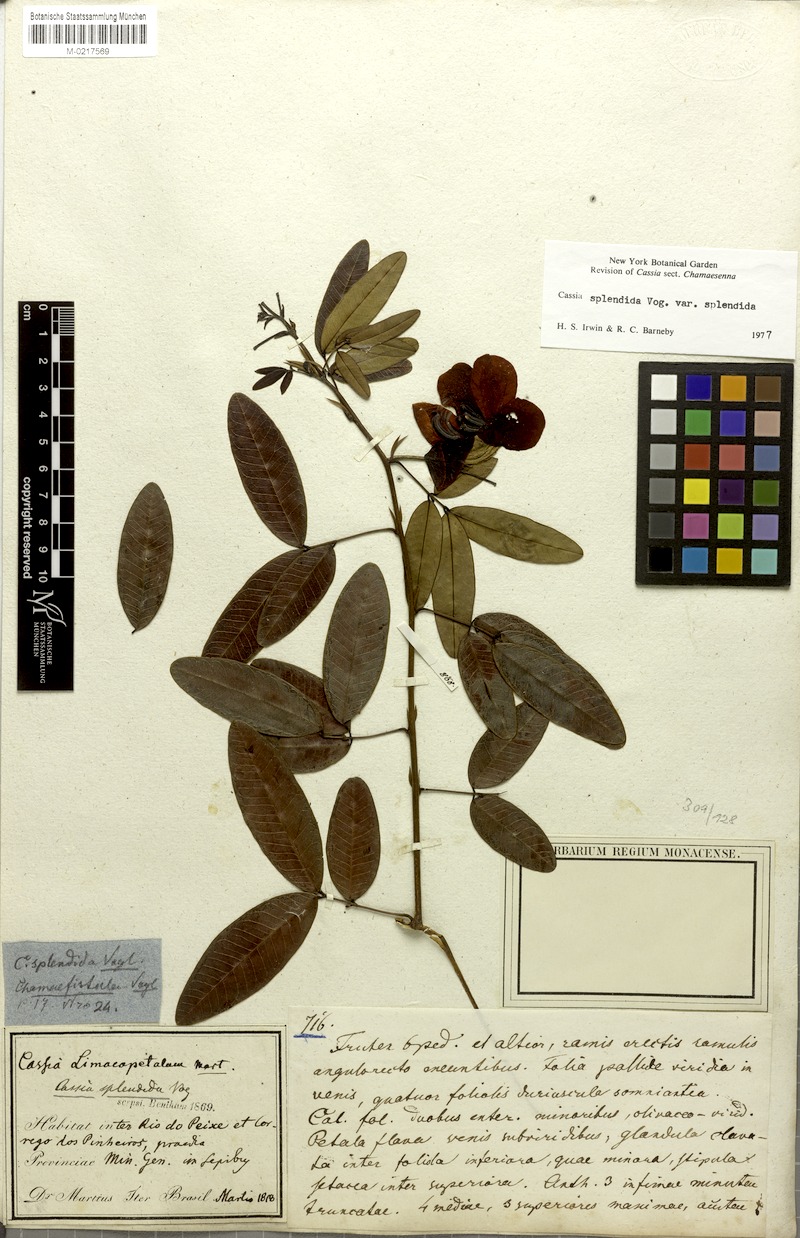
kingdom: Plantae
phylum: Tracheophyta
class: Magnoliopsida
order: Fabales
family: Fabaceae
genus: Senna
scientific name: Senna splendida
